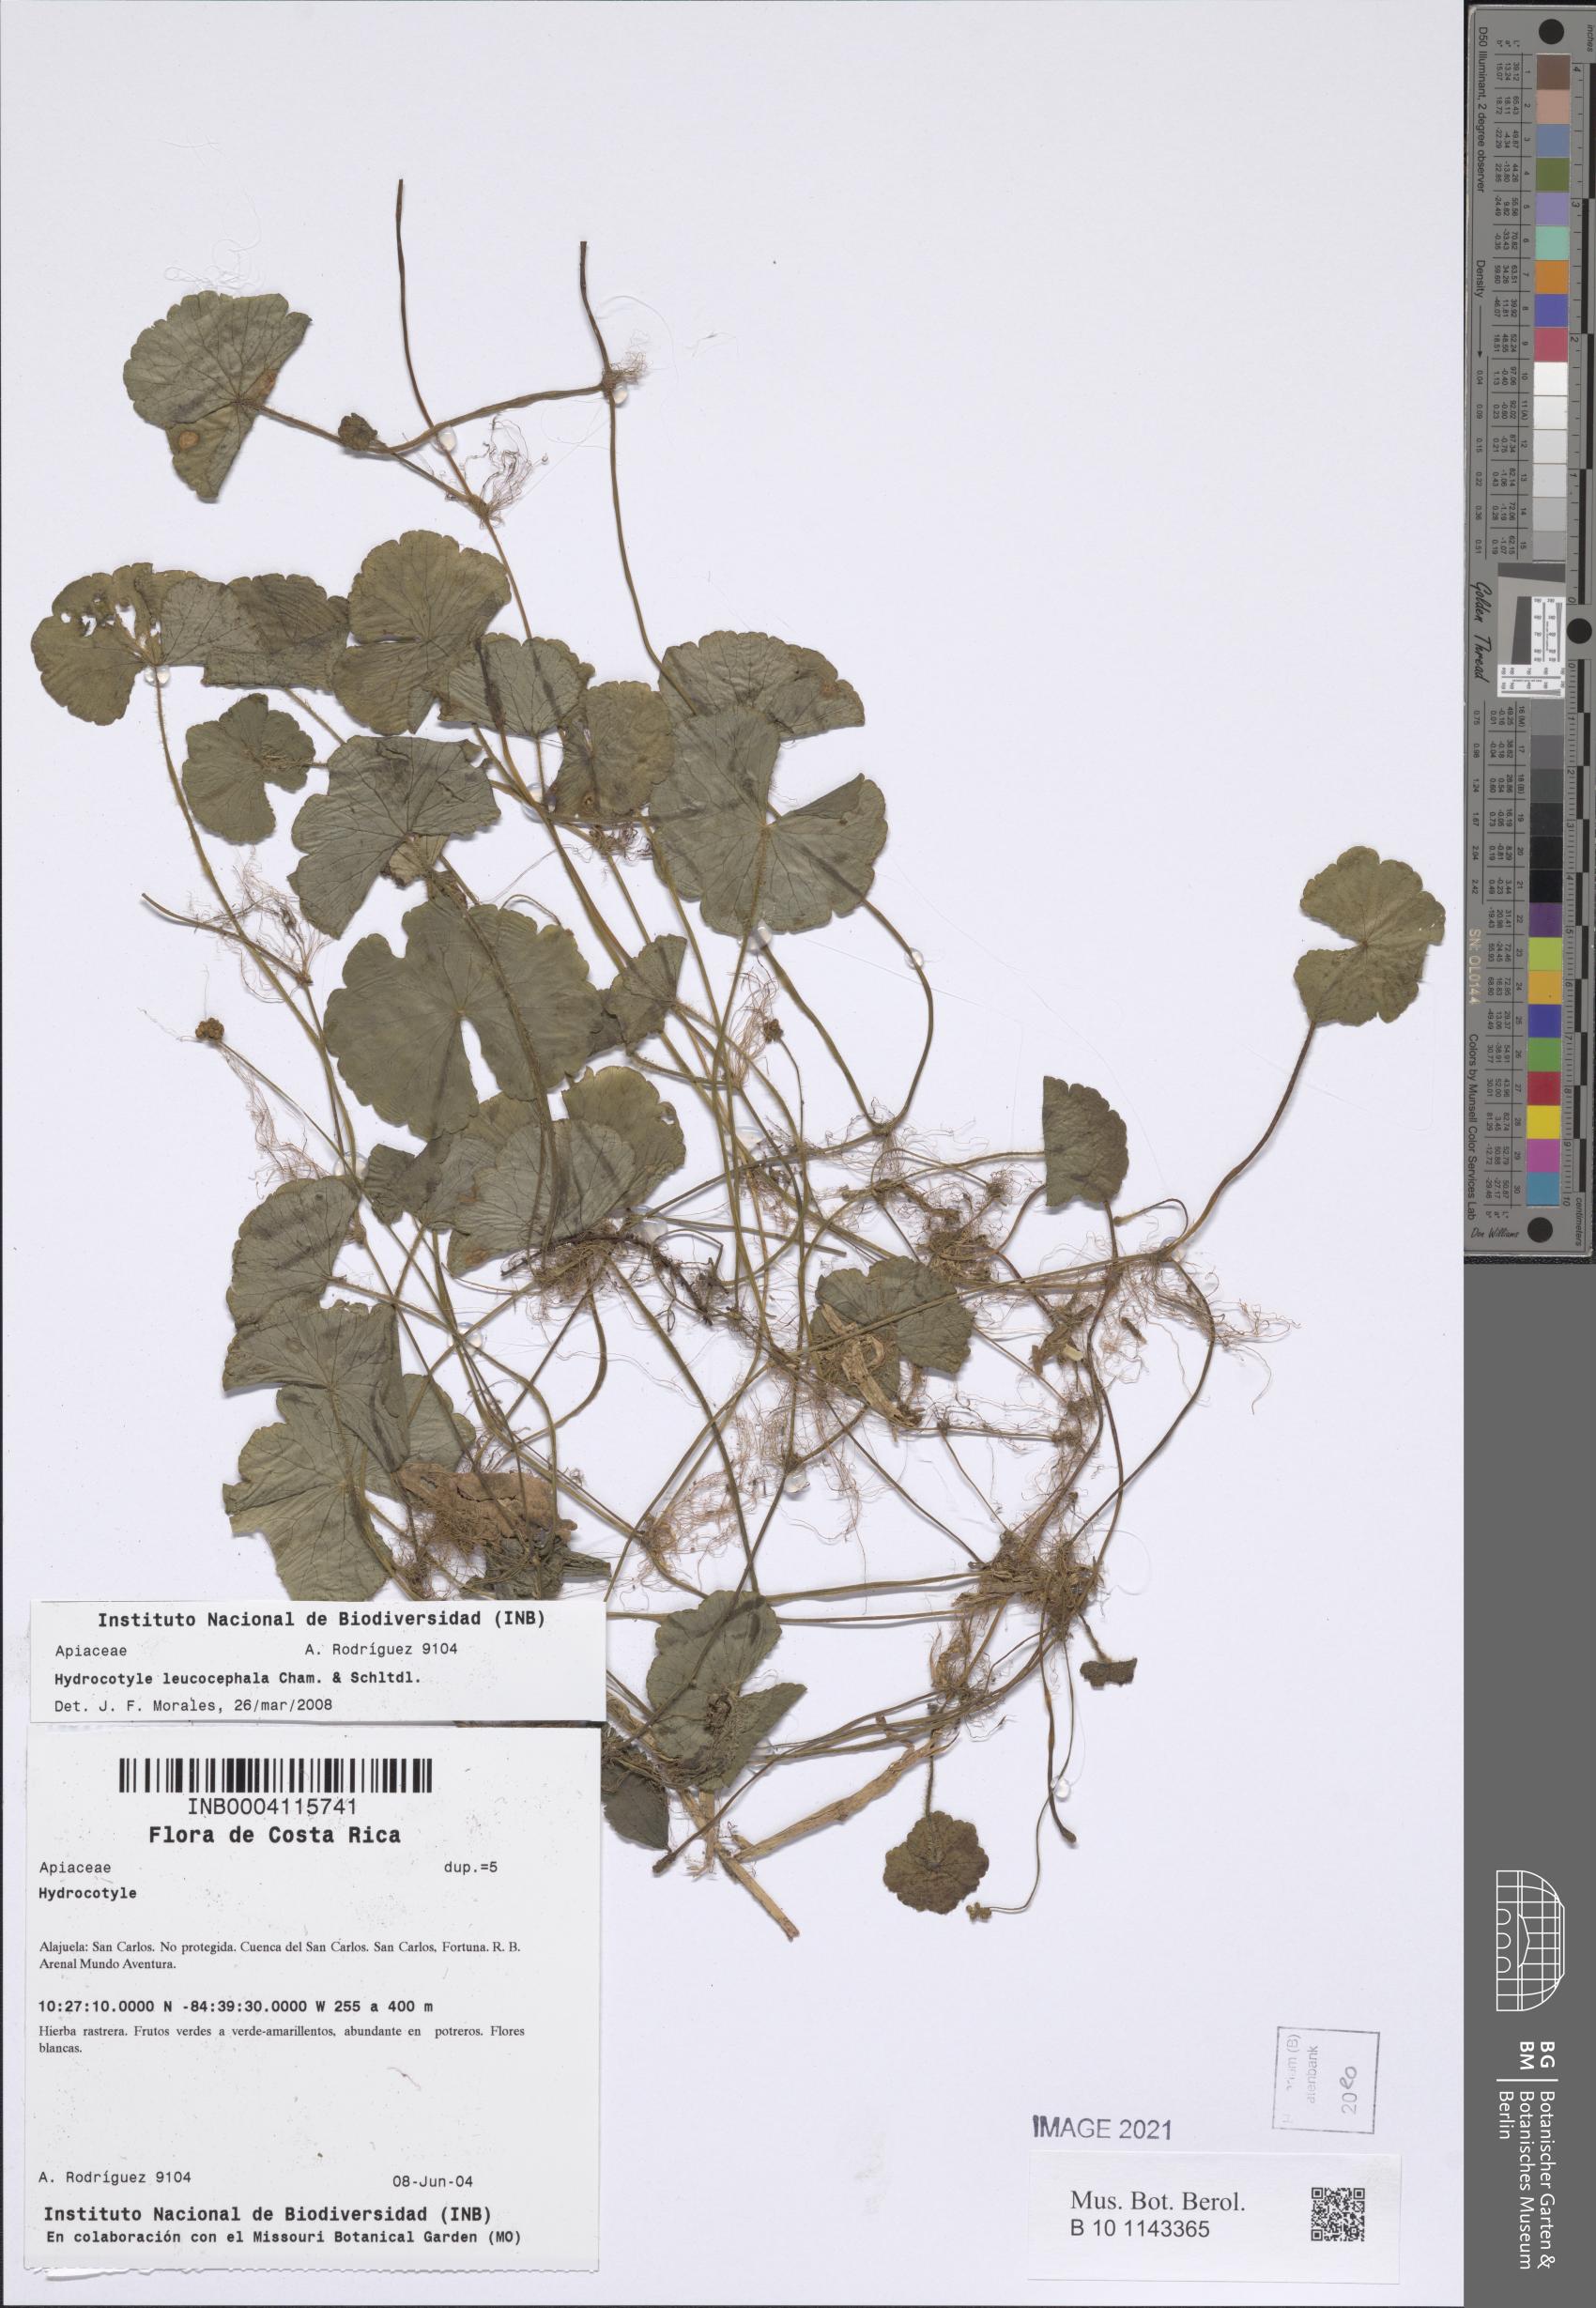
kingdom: Plantae
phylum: Tracheophyta
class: Magnoliopsida
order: Apiales
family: Araliaceae
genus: Hydrocotyle
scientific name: Hydrocotyle leucocephala
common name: Brazilian pennywort
